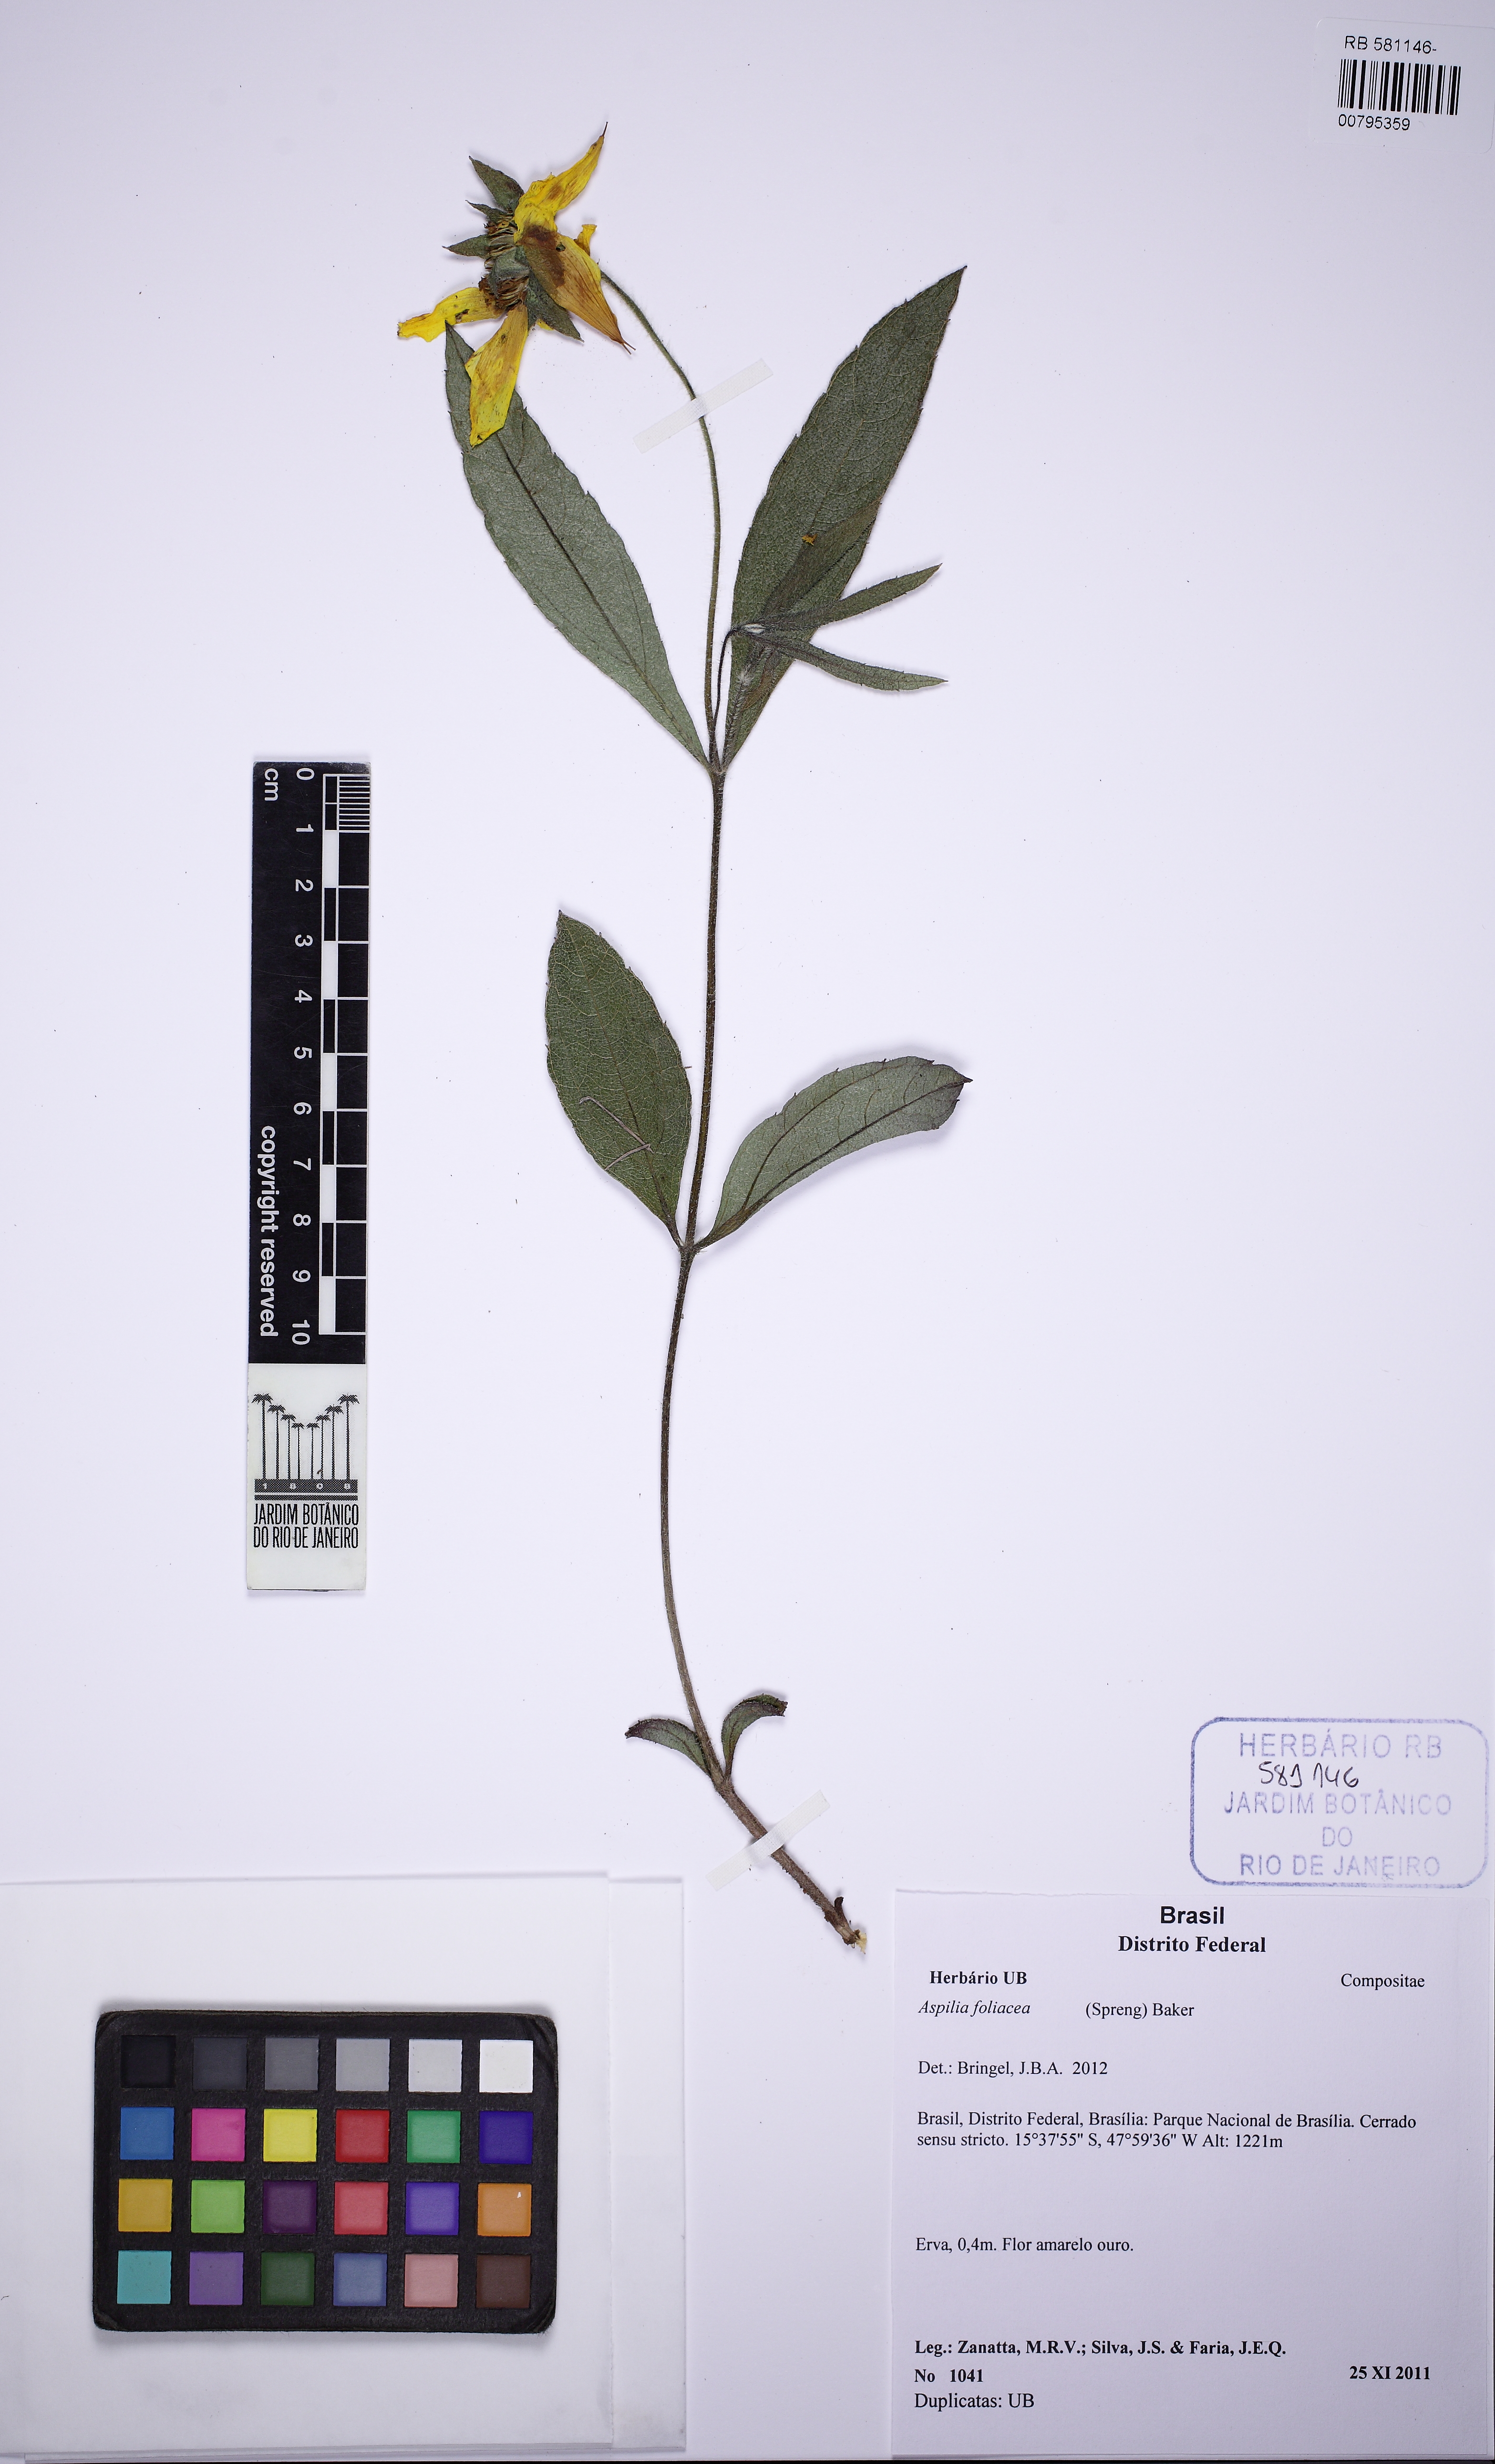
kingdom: Plantae
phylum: Tracheophyta
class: Magnoliopsida
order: Asterales
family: Asteraceae
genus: Wedelia
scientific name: Wedelia foliacea
